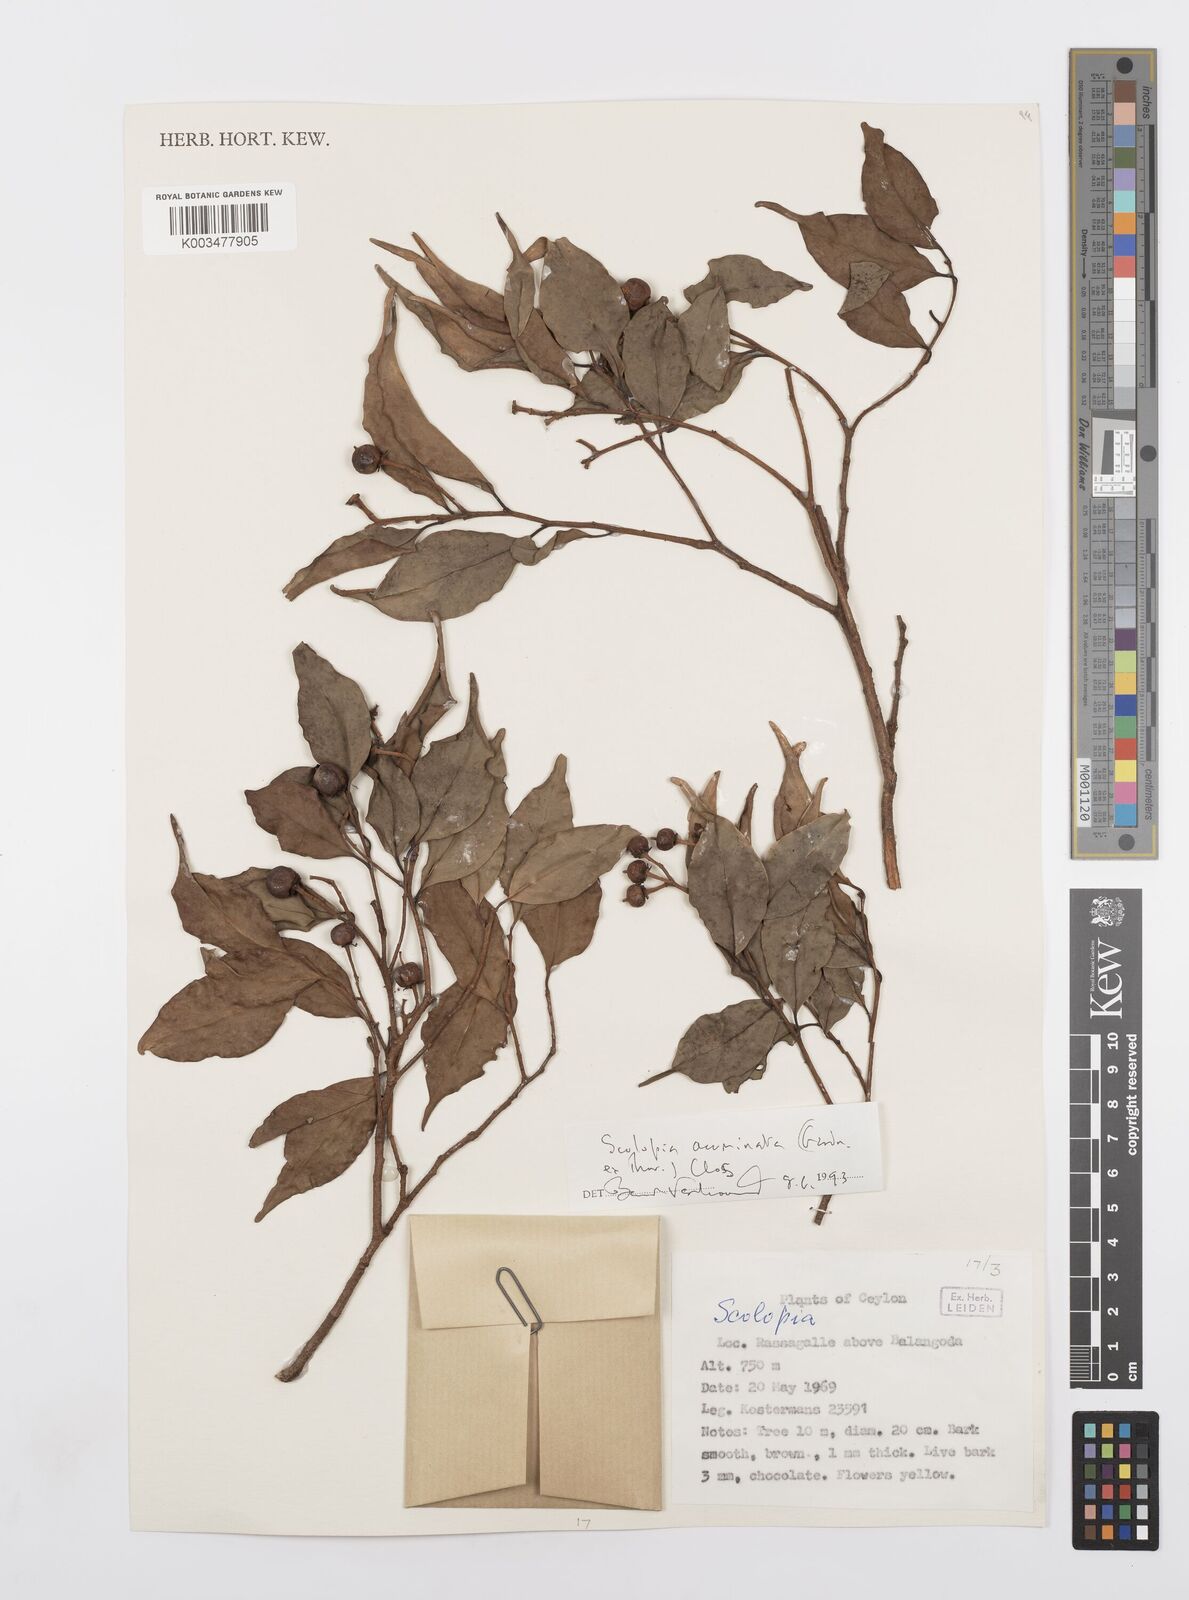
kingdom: Plantae
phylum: Tracheophyta
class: Magnoliopsida
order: Malpighiales
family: Salicaceae
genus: Scolopia
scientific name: Scolopia acuminata
